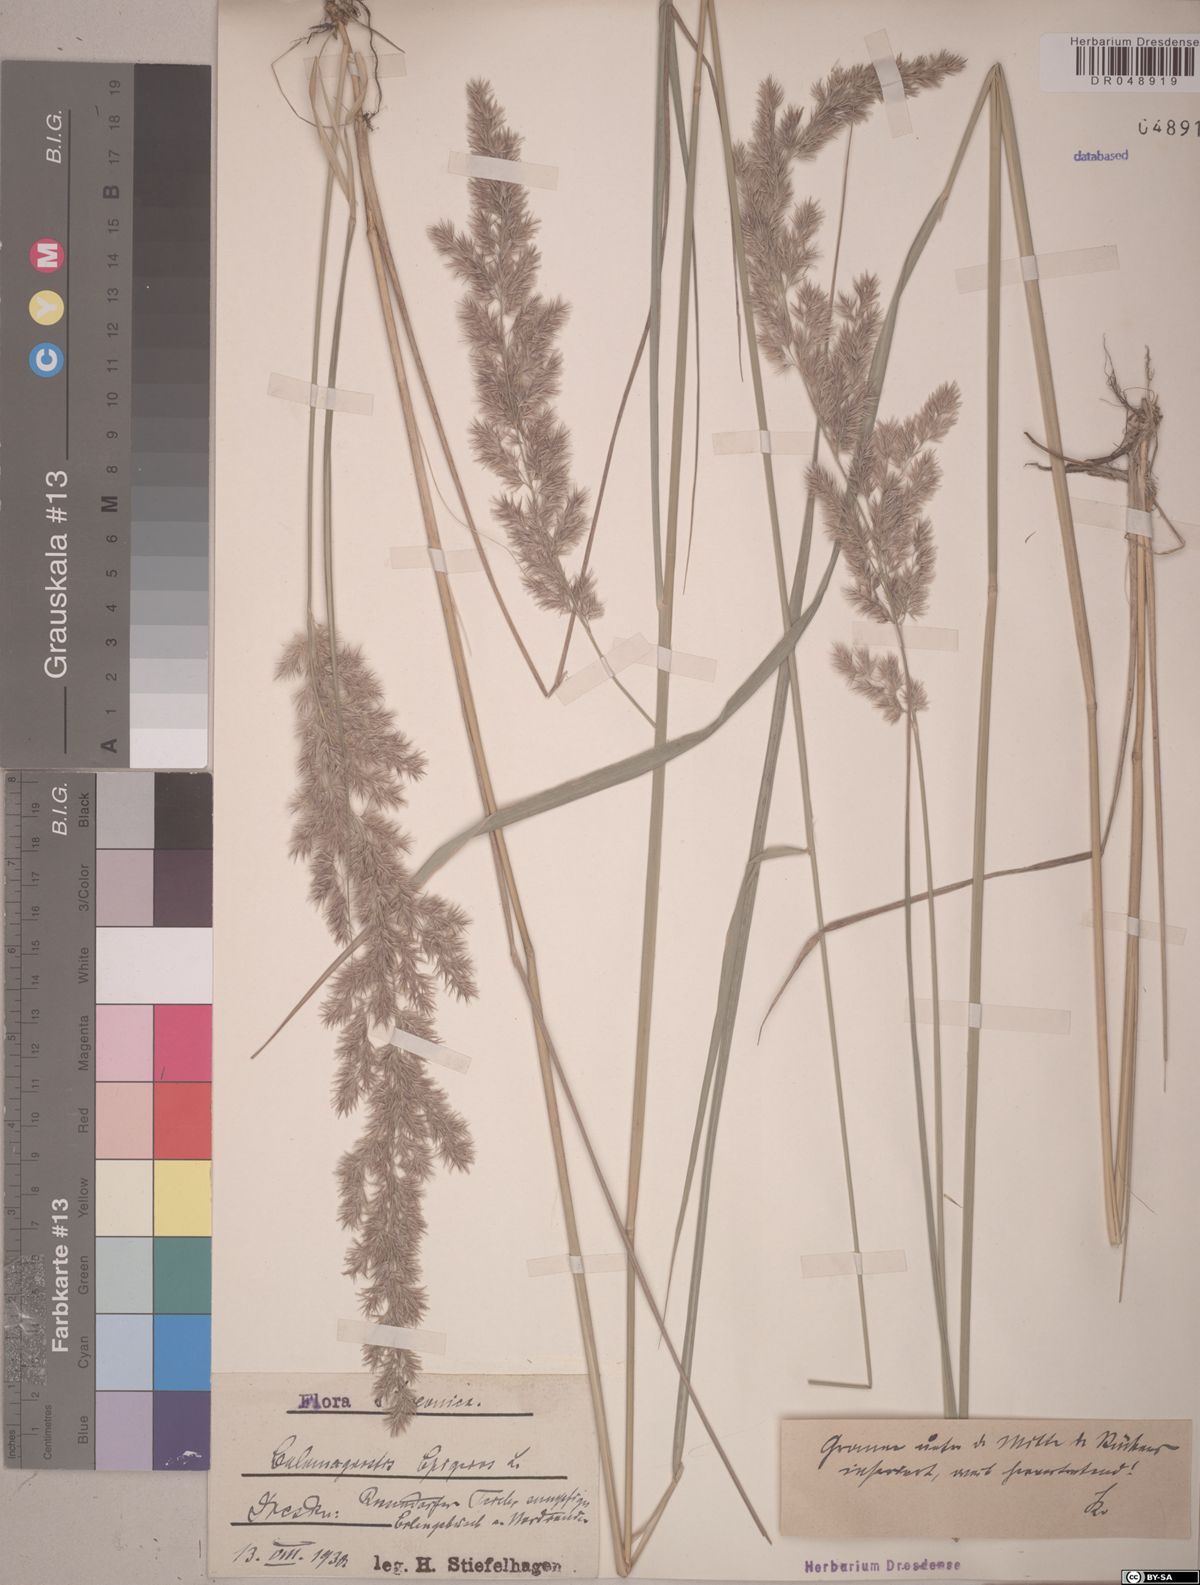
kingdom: Plantae
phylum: Tracheophyta
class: Liliopsida
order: Poales
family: Poaceae
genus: Calamagrostis
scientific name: Calamagrostis epigejos
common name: Wood small-reed
